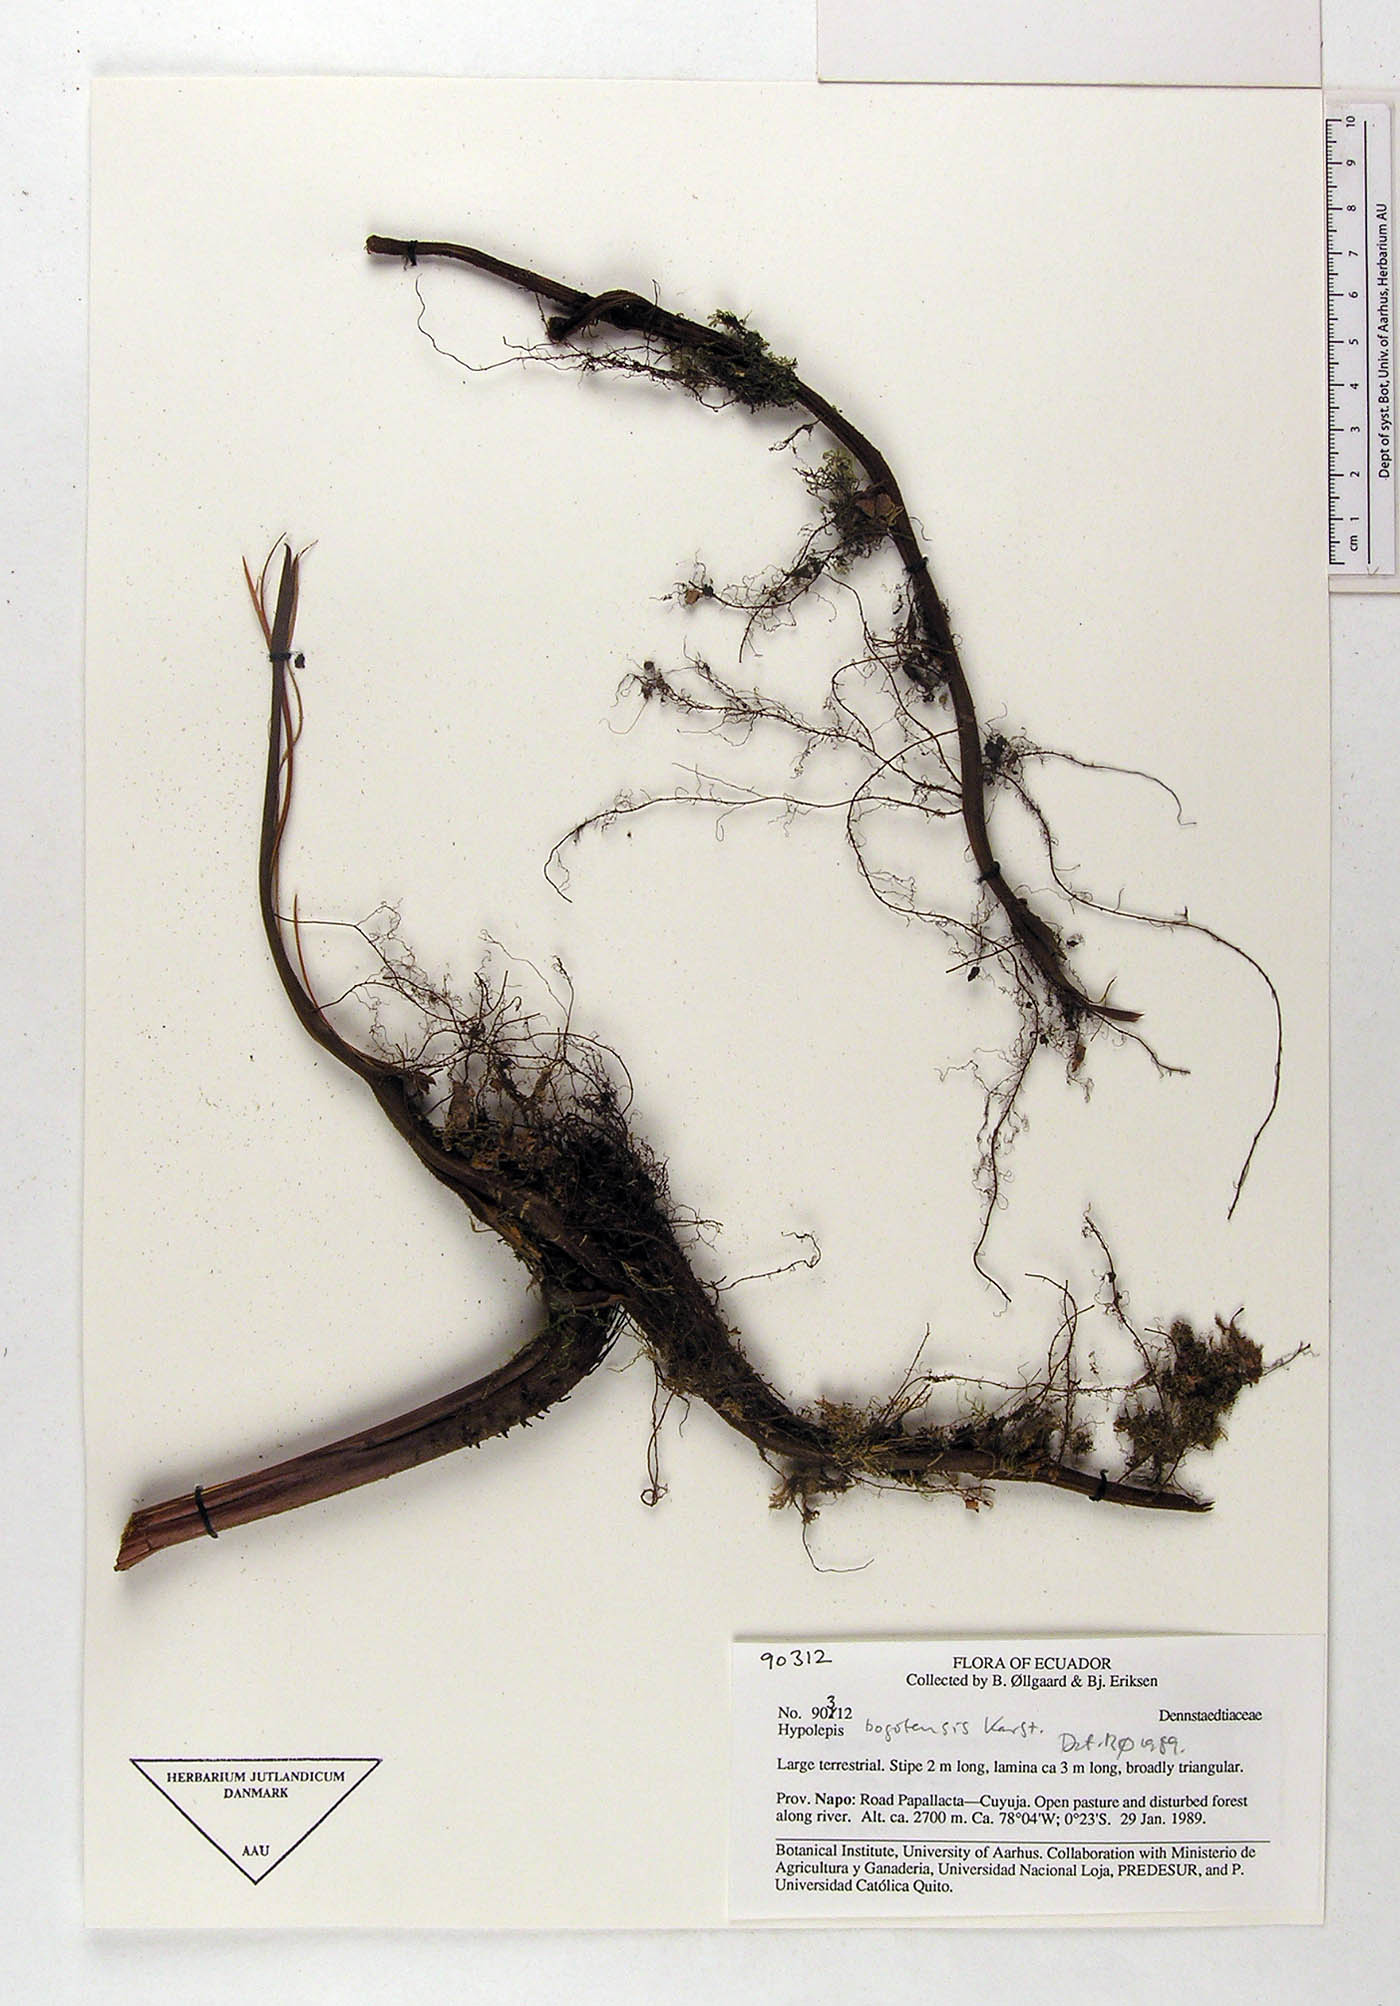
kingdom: Plantae
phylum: Tracheophyta
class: Polypodiopsida
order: Polypodiales
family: Dennstaedtiaceae
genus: Hypolepis
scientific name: Hypolepis bogotensis
